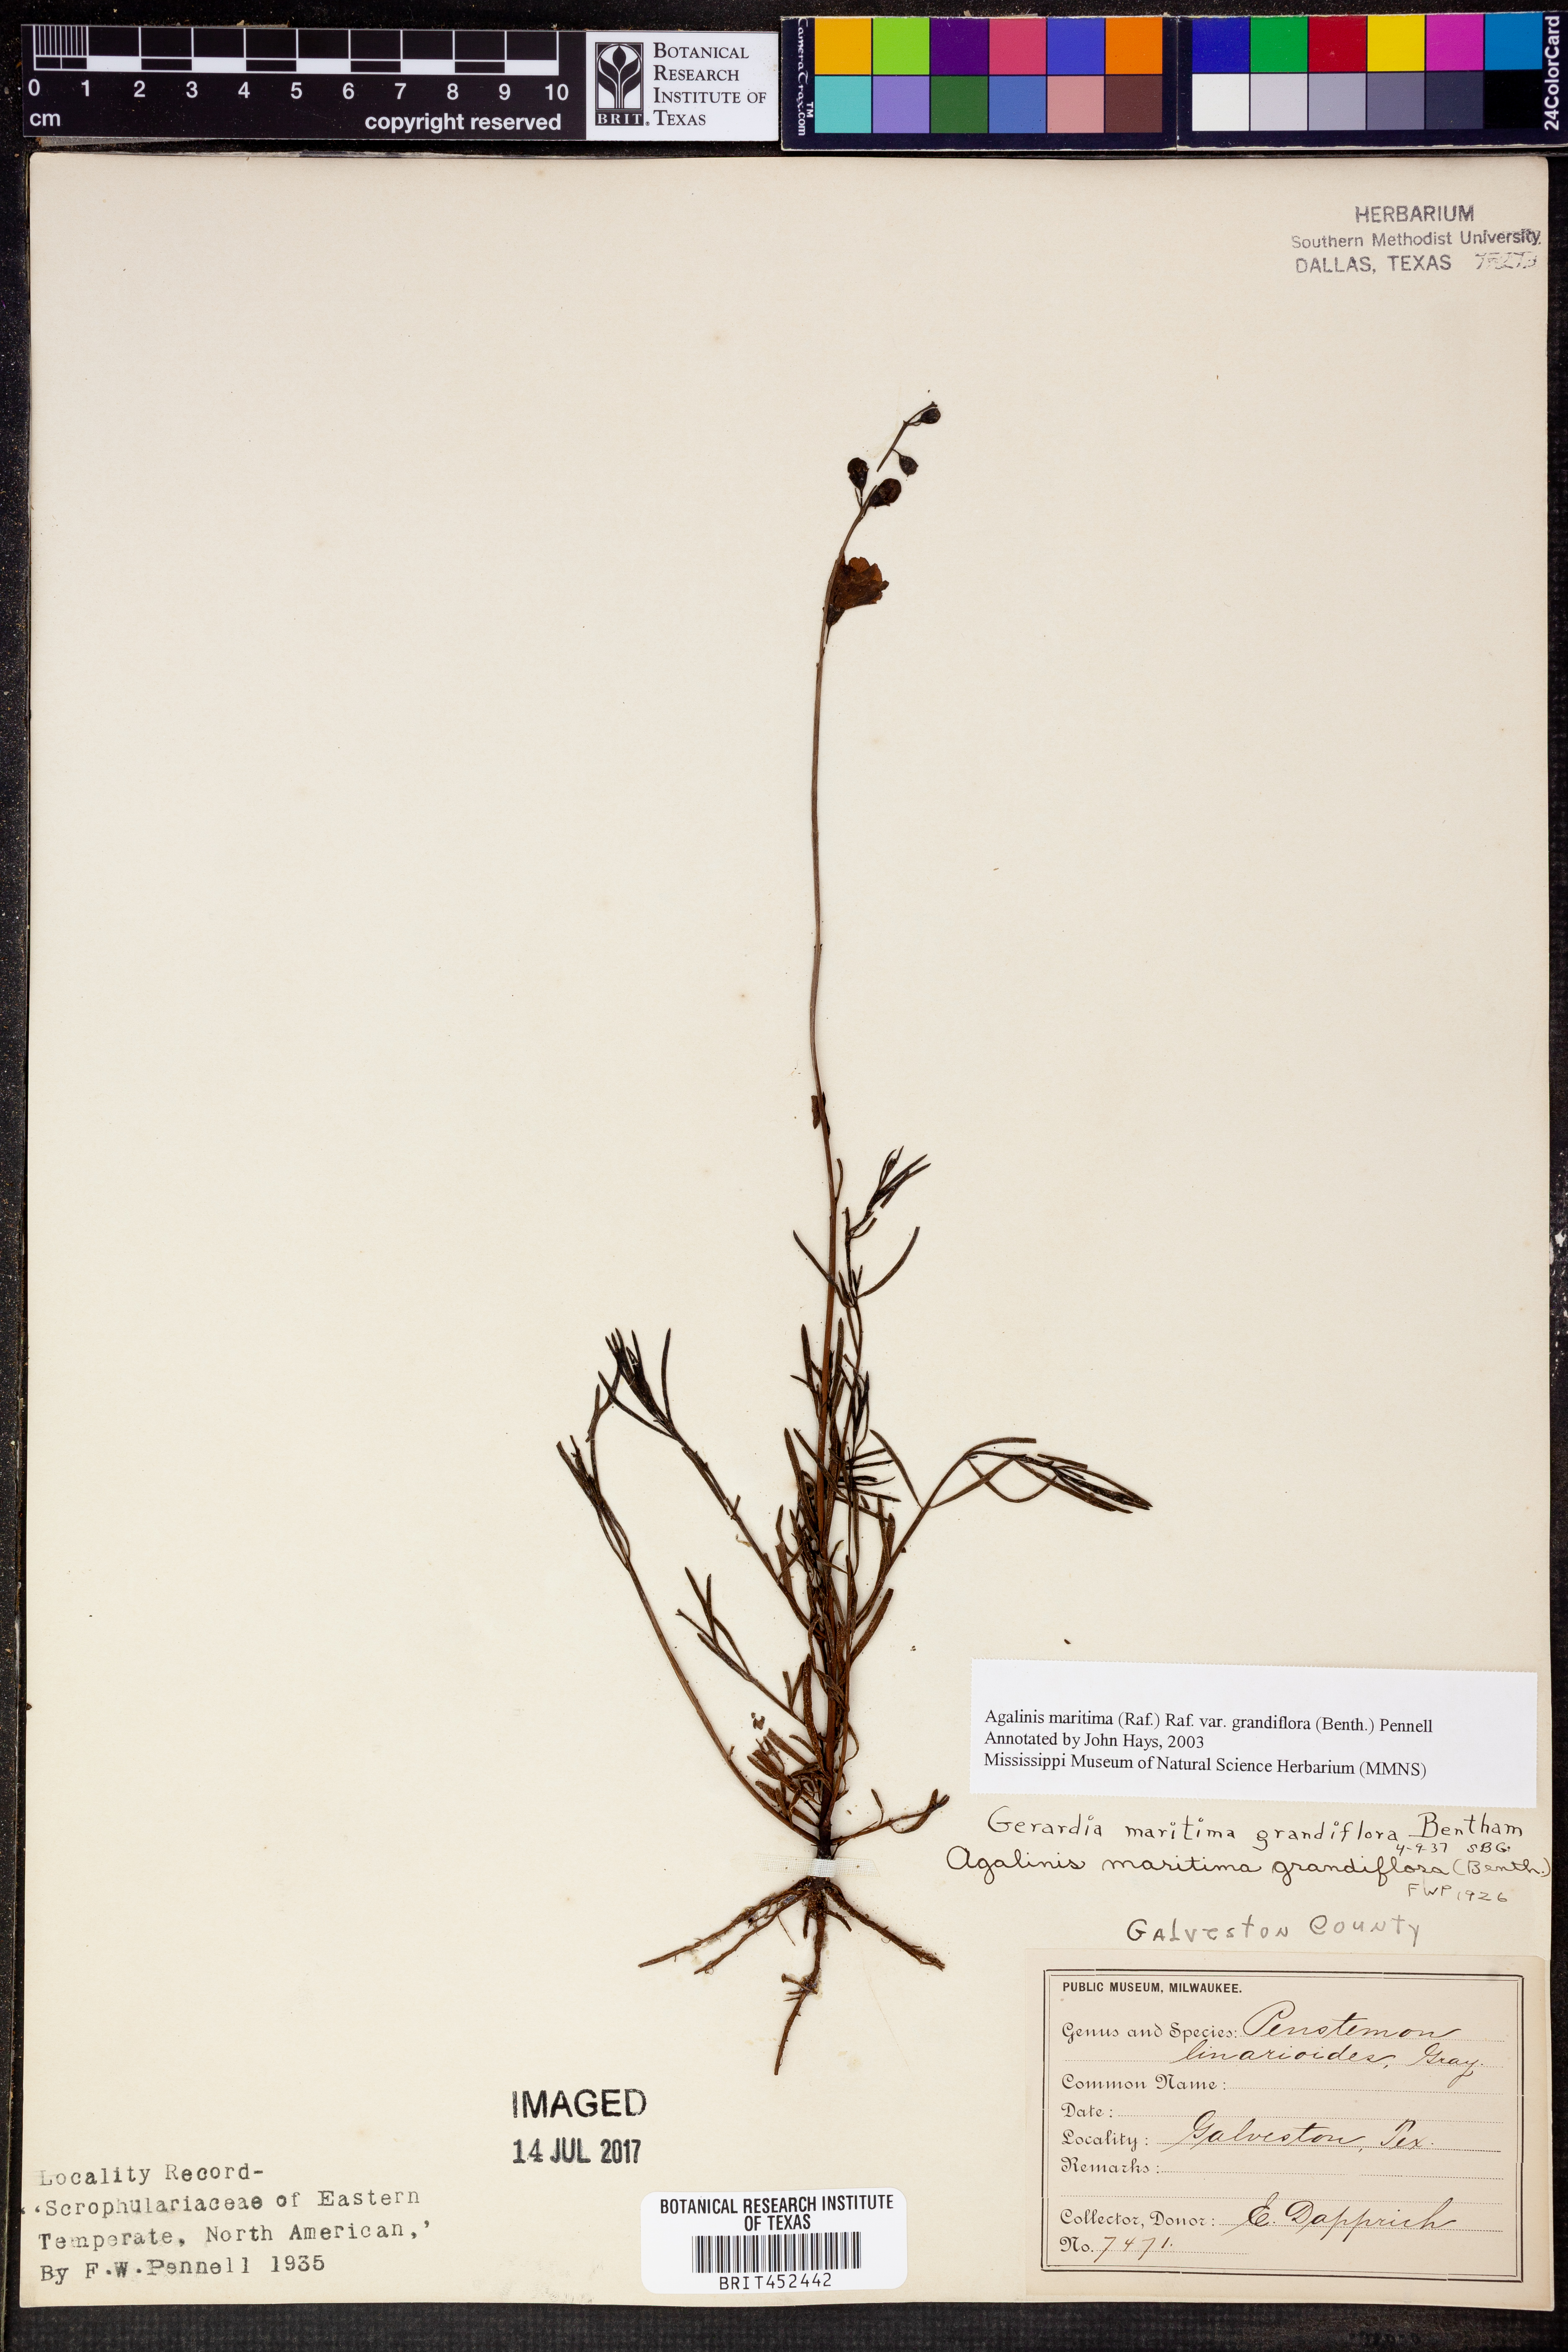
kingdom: Plantae
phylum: Tracheophyta
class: Magnoliopsida
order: Lamiales
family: Orobanchaceae
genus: Agalinis
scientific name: Agalinis harperi
